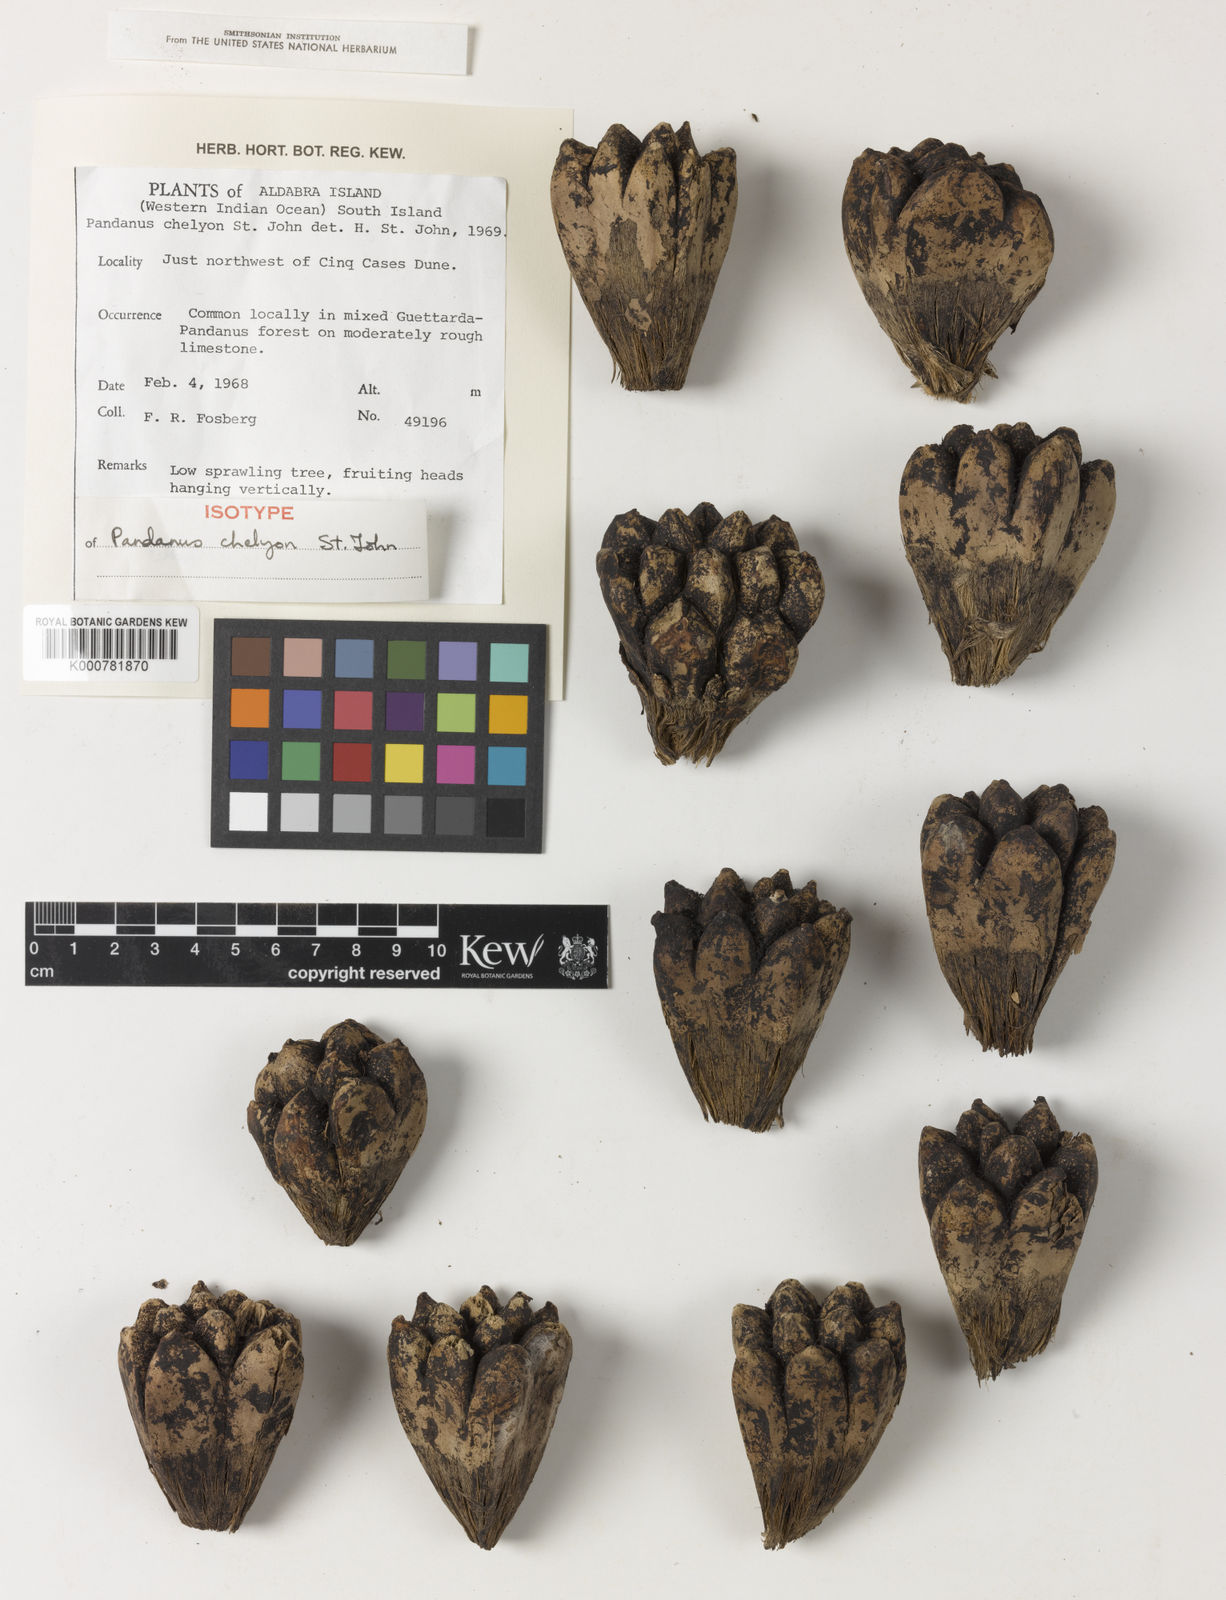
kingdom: Plantae
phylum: Tracheophyta
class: Liliopsida
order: Pandanales
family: Pandanaceae
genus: Pandanus
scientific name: Pandanus odorifer
